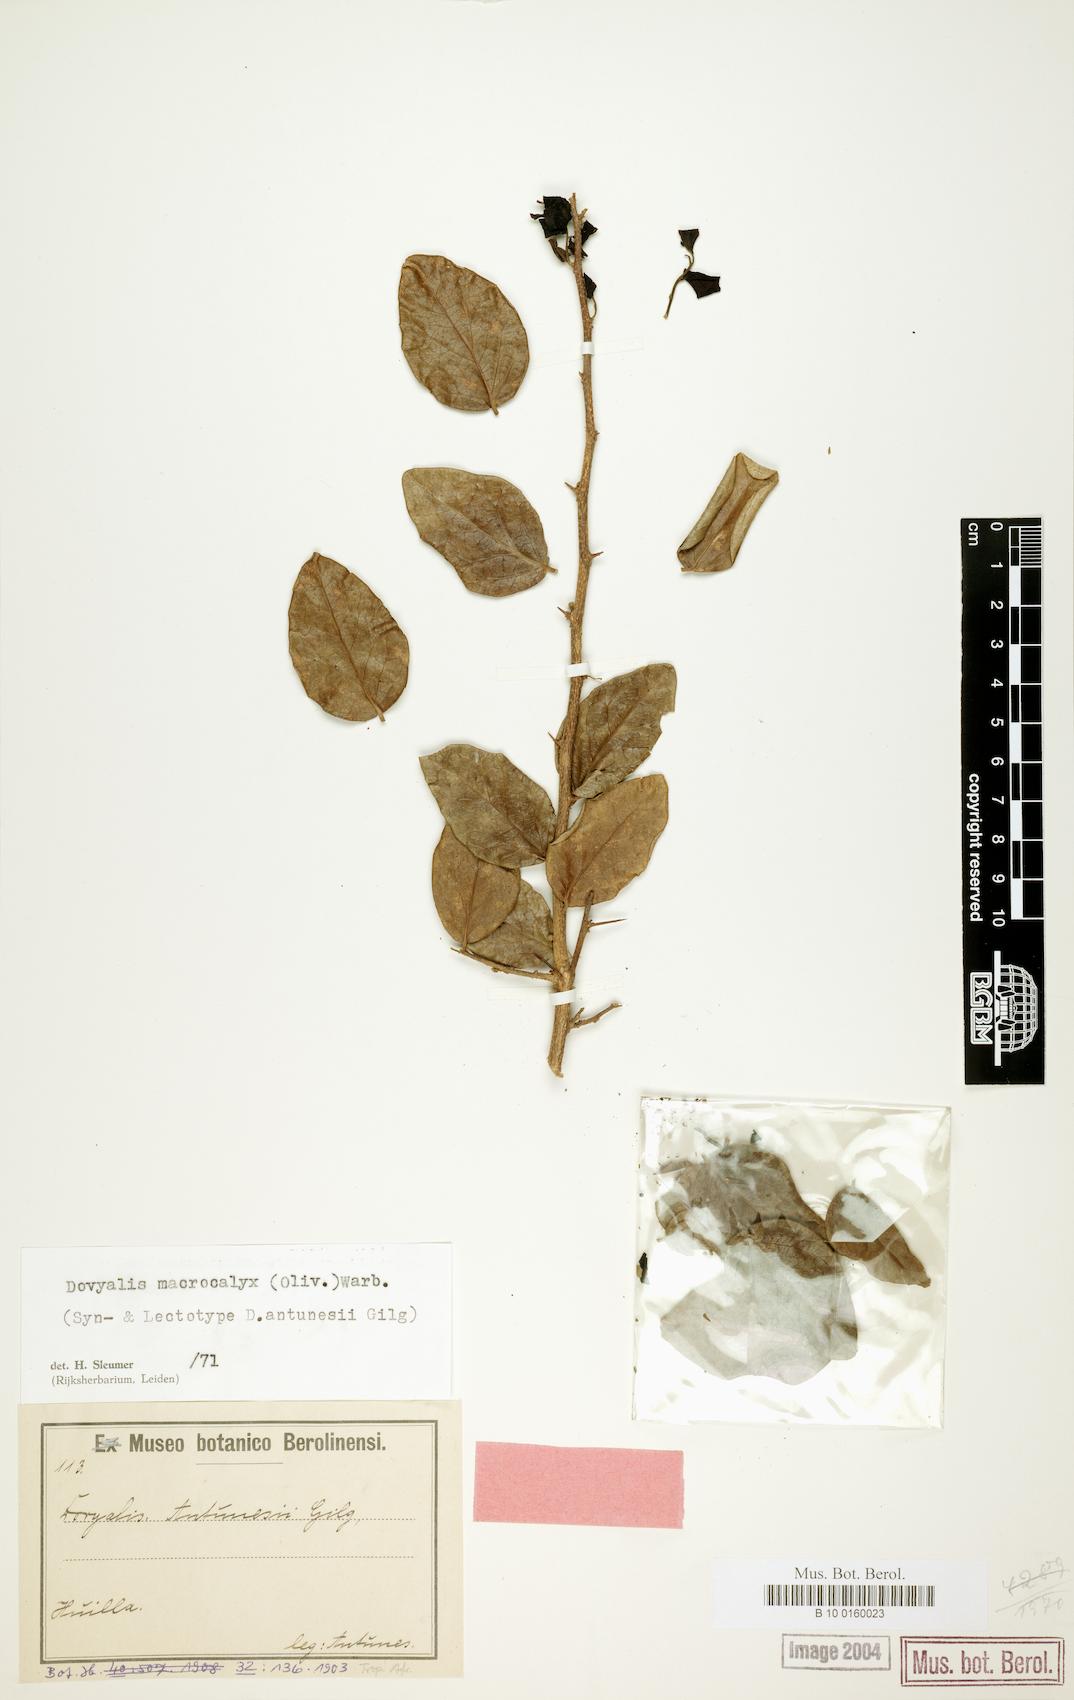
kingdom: Plantae
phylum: Tracheophyta
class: Magnoliopsida
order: Malpighiales
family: Salicaceae
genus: Dovyalis
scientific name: Dovyalis macrocalyx
